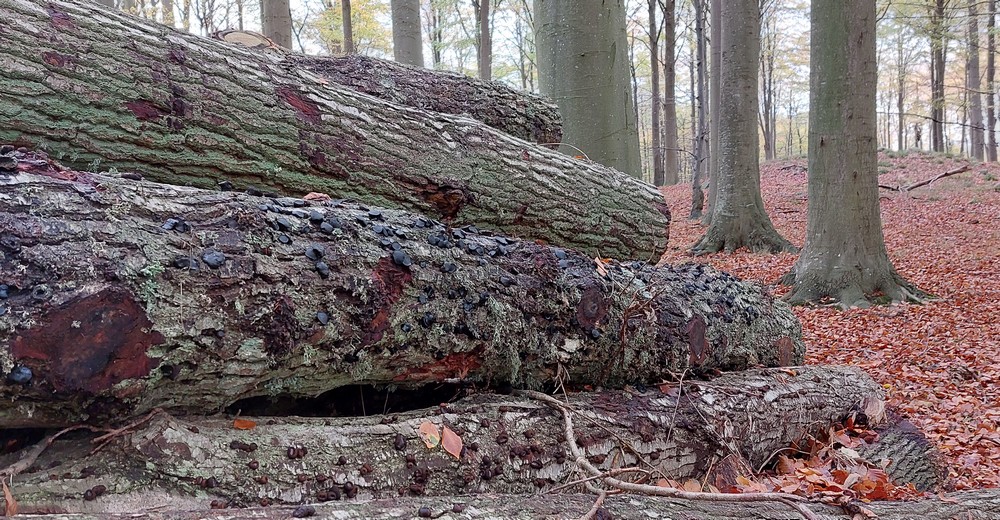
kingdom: Fungi
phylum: Ascomycota
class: Leotiomycetes
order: Phacidiales
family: Phacidiaceae
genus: Bulgaria
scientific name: Bulgaria inquinans
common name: afsmittende topsvamp
